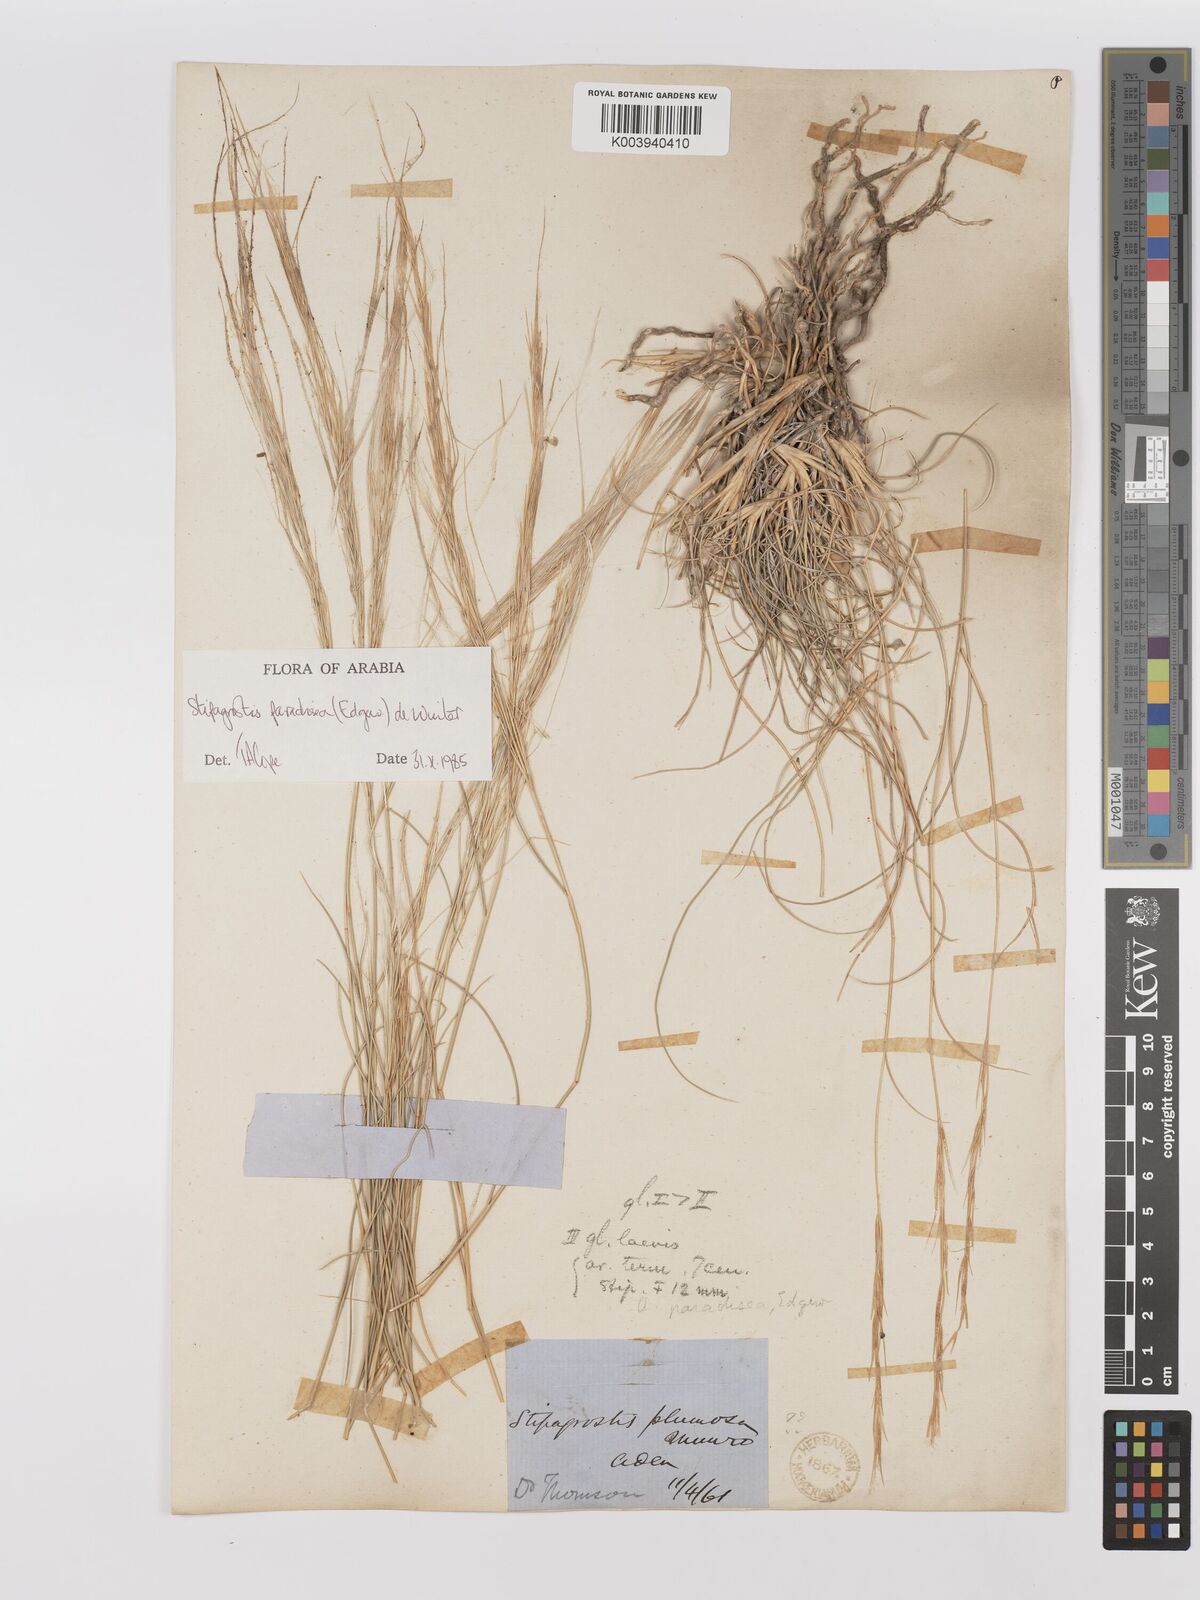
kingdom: Plantae
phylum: Tracheophyta
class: Liliopsida
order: Poales
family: Poaceae
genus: Stipagrostis
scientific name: Stipagrostis paradisea
